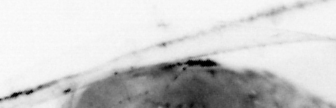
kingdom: Animalia
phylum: Chaetognatha
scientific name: Chaetognatha
